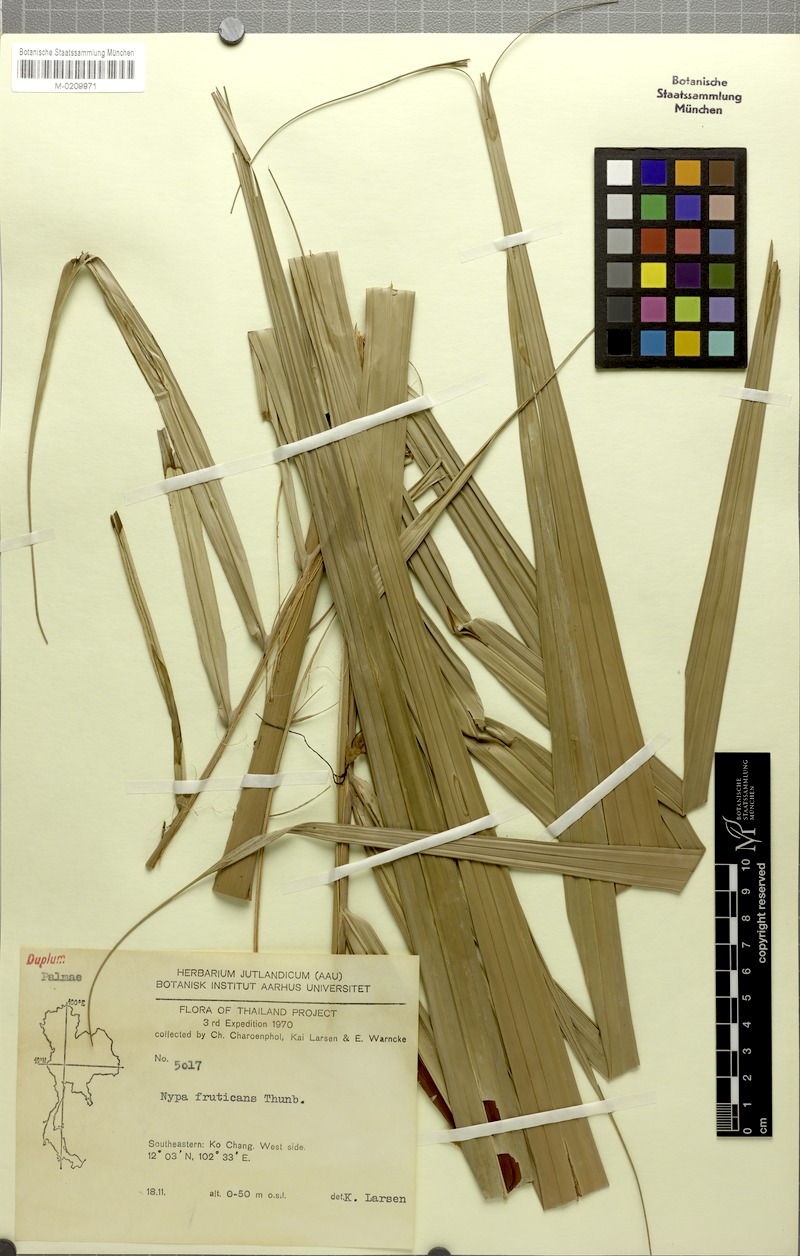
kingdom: Plantae
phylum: Tracheophyta
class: Liliopsida
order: Arecales
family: Arecaceae
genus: Nypa
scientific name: Nypa fruticans
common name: Mangrove palm
